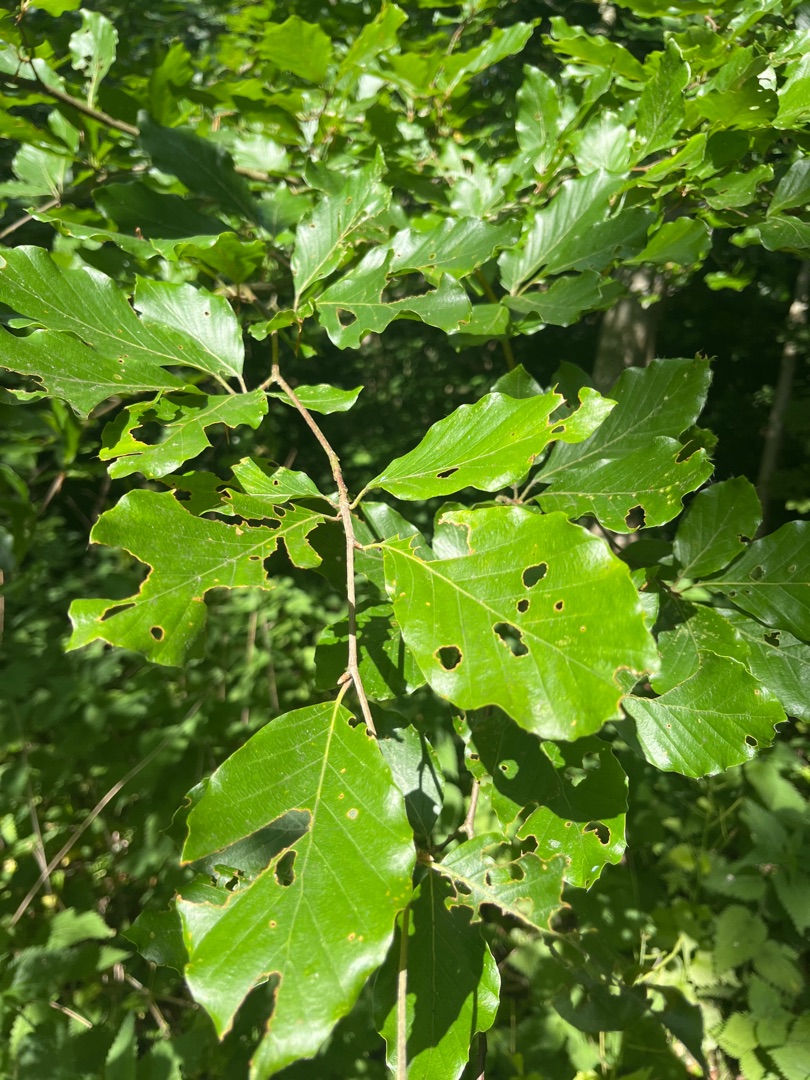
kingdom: Plantae
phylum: Tracheophyta
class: Magnoliopsida
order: Fagales
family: Fagaceae
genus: Fagus
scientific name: Fagus sylvatica
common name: Bøg
